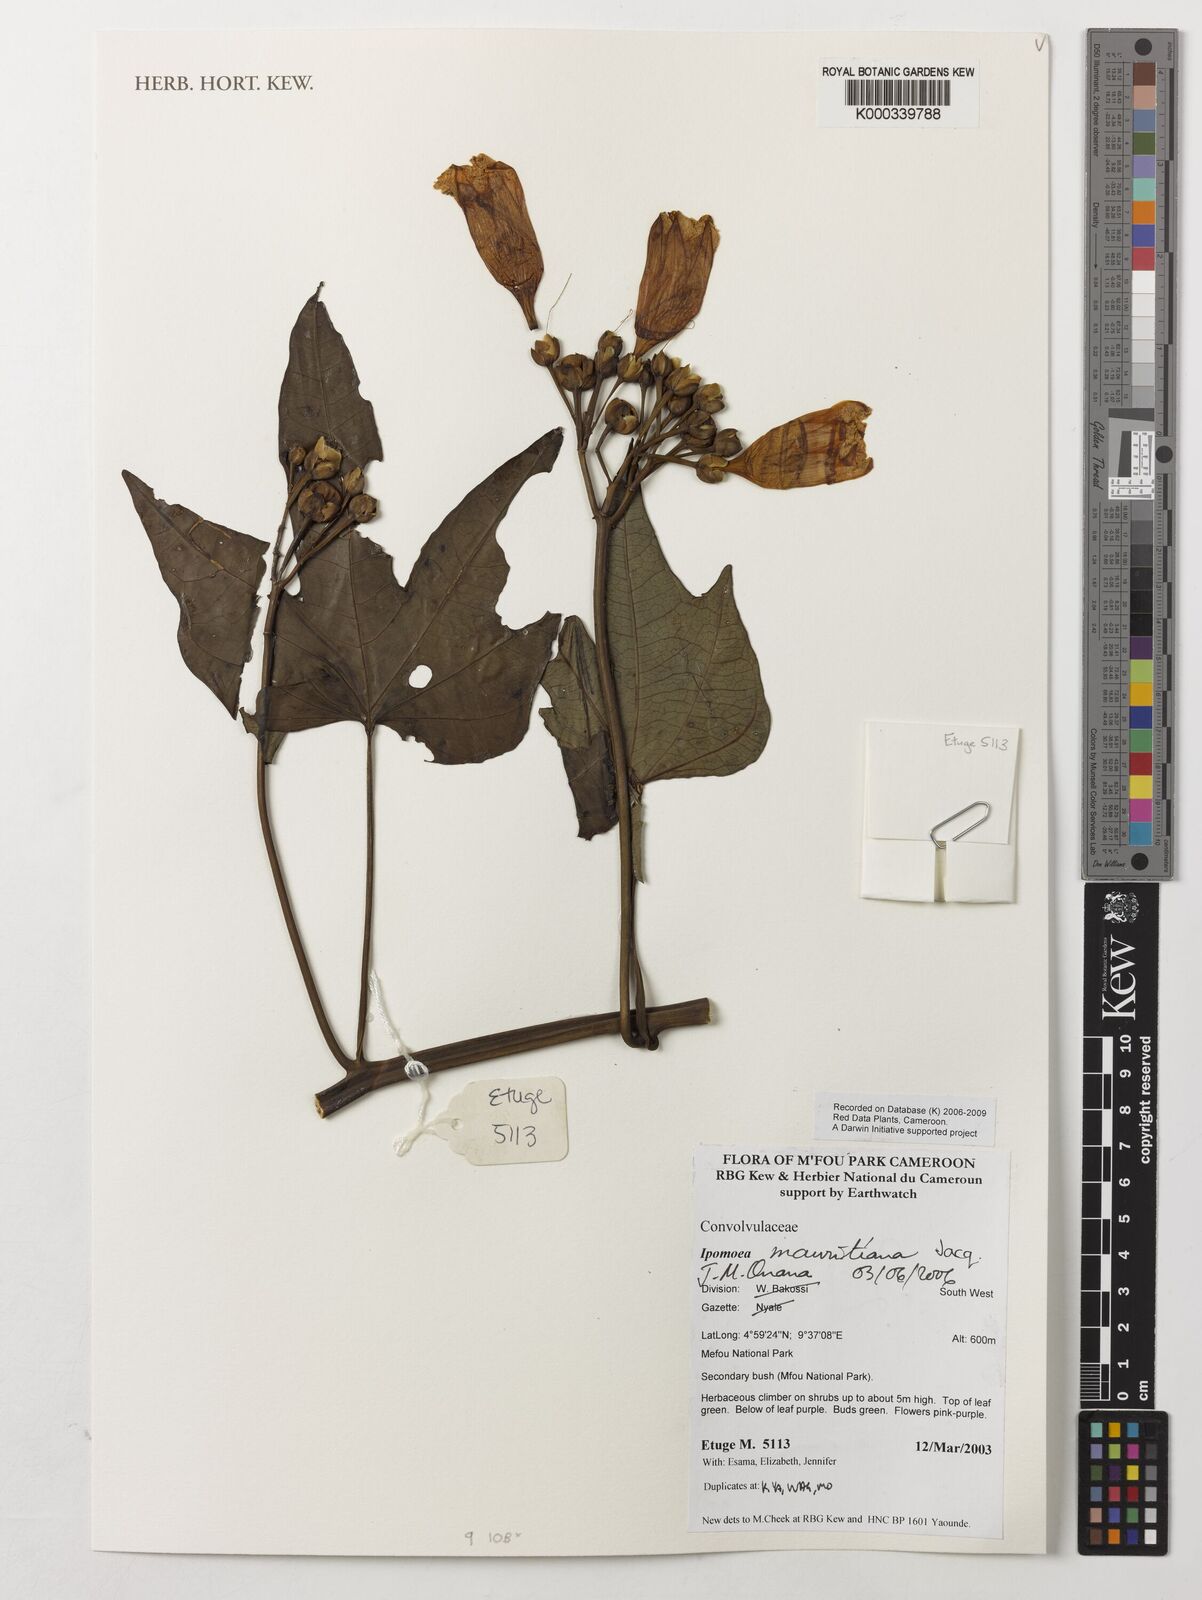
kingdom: Plantae
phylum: Tracheophyta
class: Magnoliopsida
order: Solanales
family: Convolvulaceae
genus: Ipomoea
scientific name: Ipomoea mauritiana
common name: Mauritanian convolvulus
